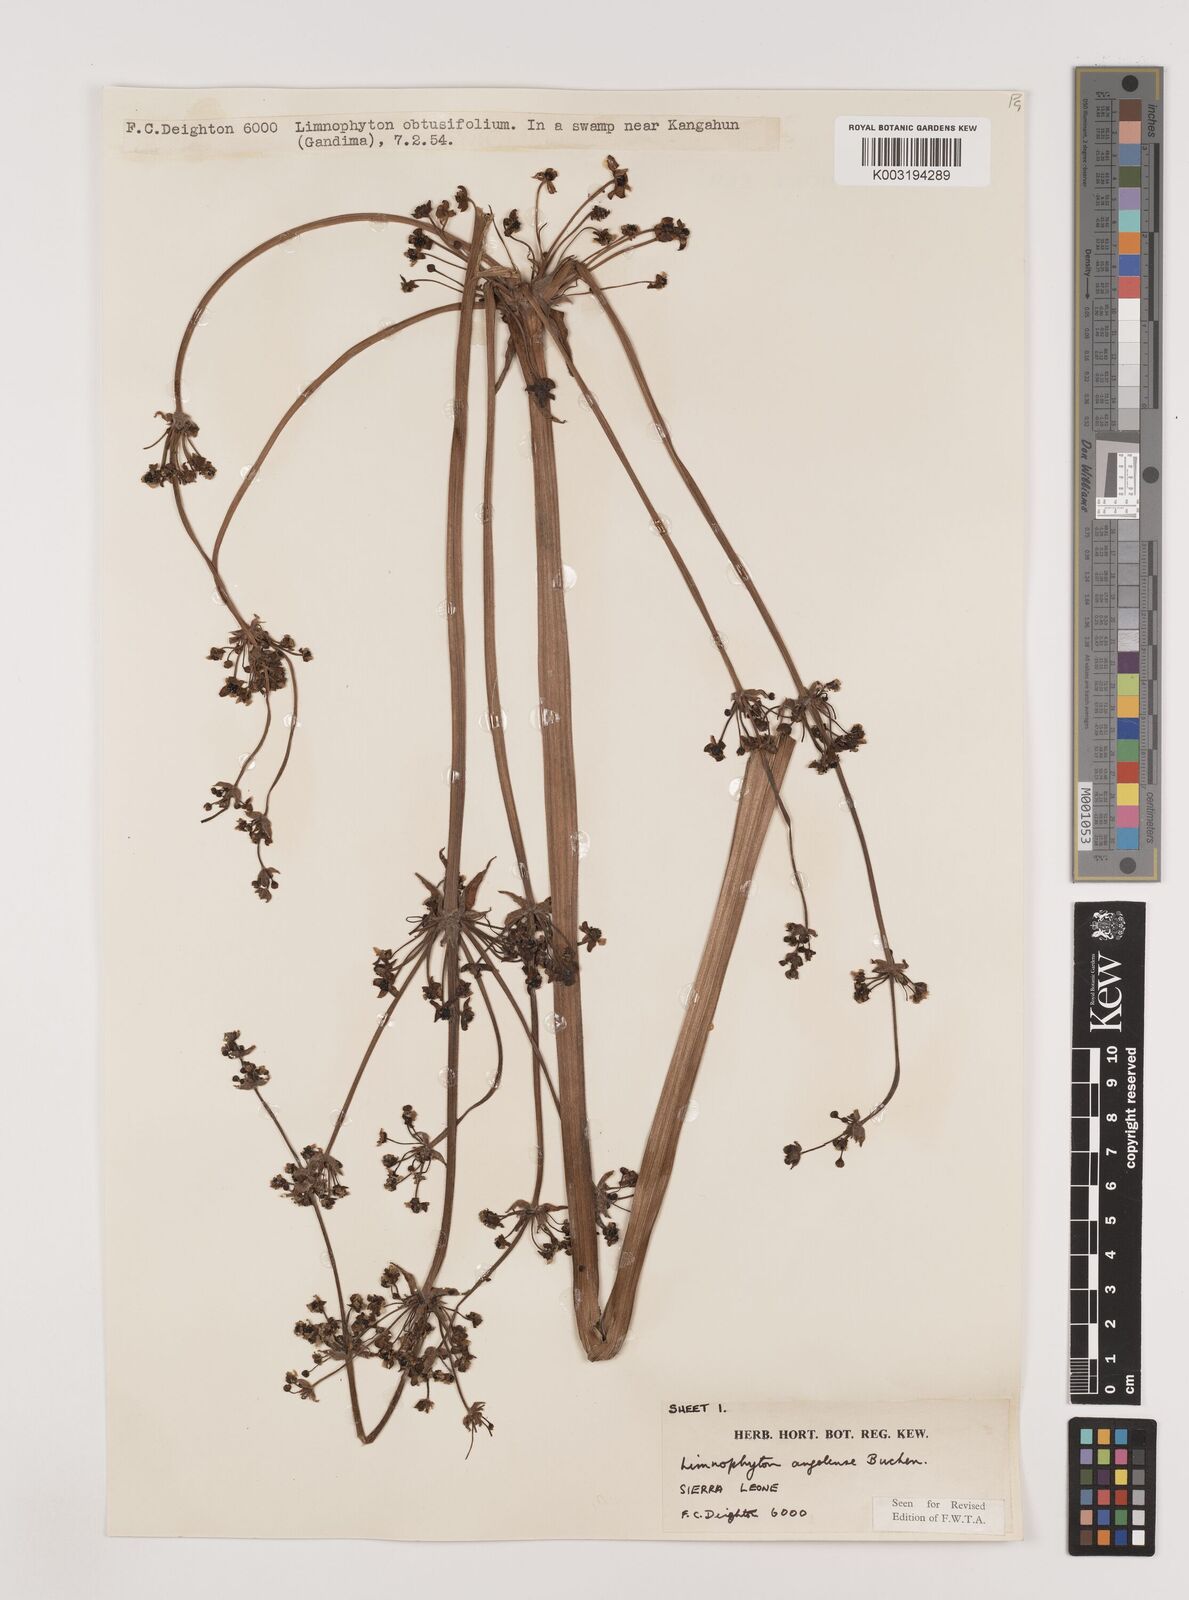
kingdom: Plantae
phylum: Tracheophyta
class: Liliopsida
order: Alismatales
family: Alismataceae
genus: Limnophyton
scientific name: Limnophyton angolense
